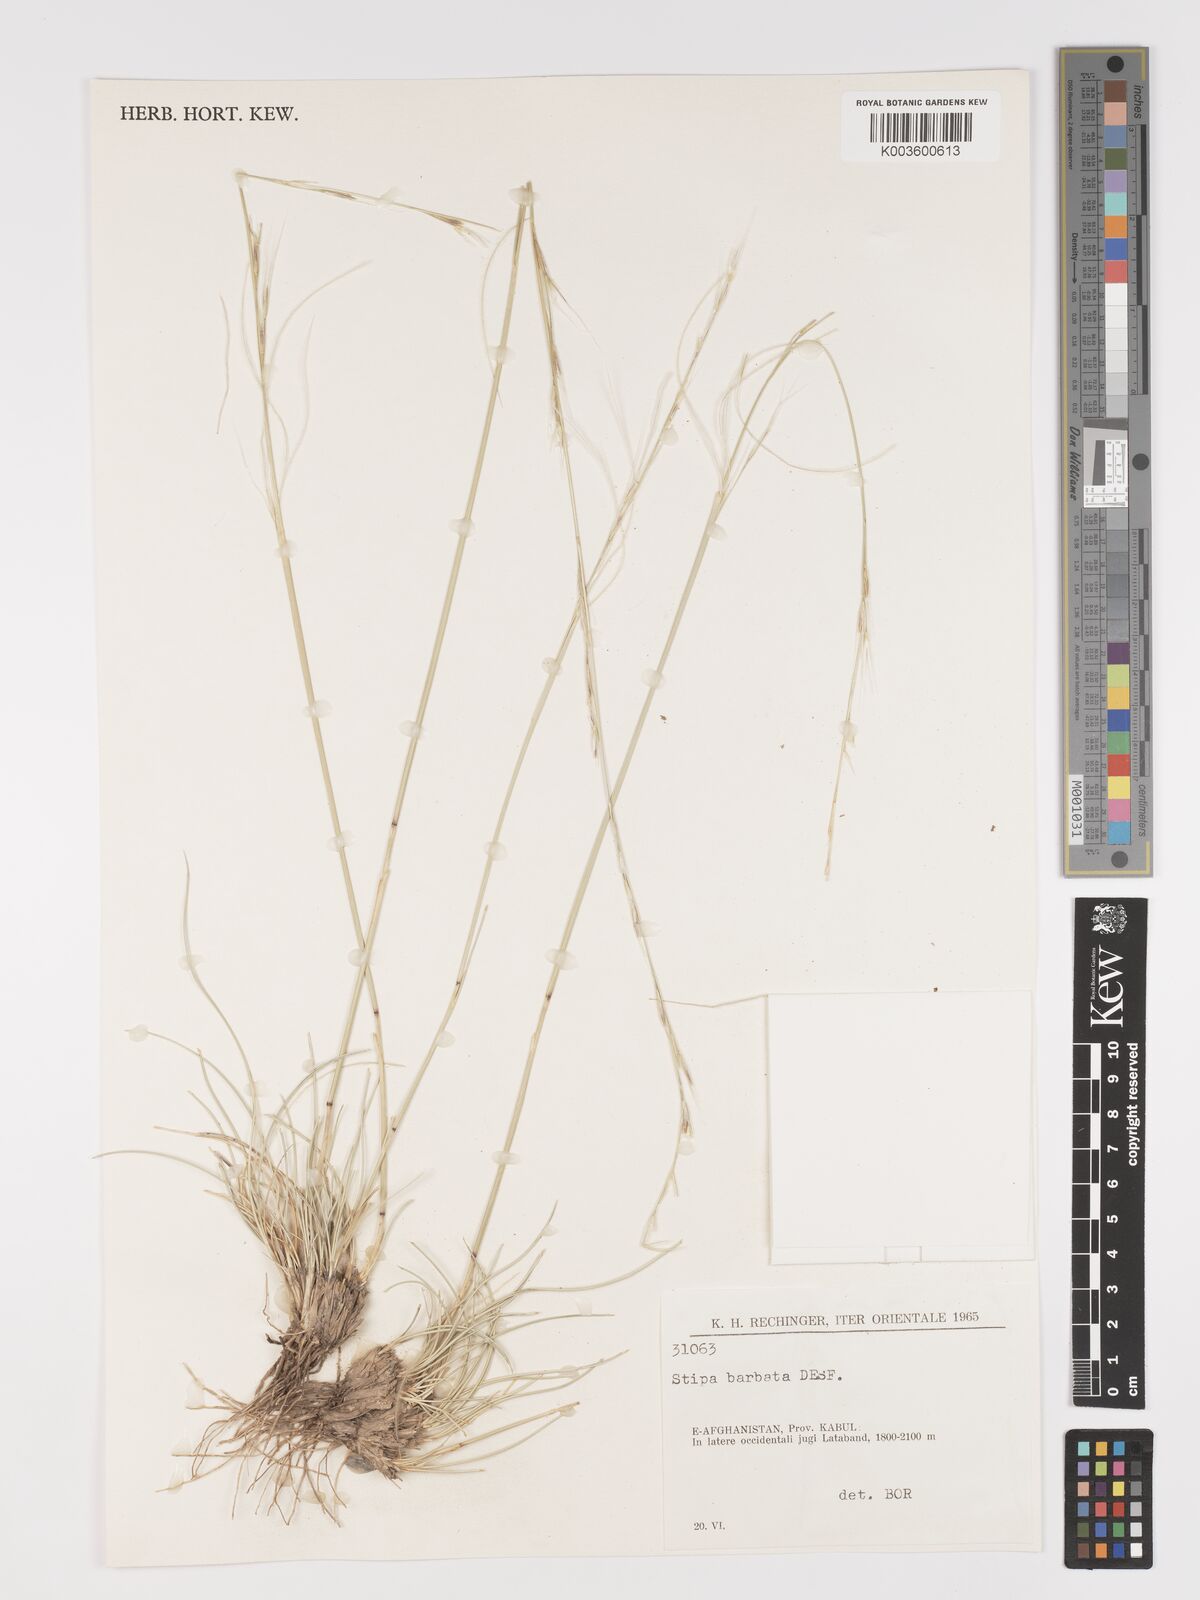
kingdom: Plantae
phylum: Tracheophyta
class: Liliopsida
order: Poales
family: Poaceae
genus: Stipa
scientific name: Stipa barbata
